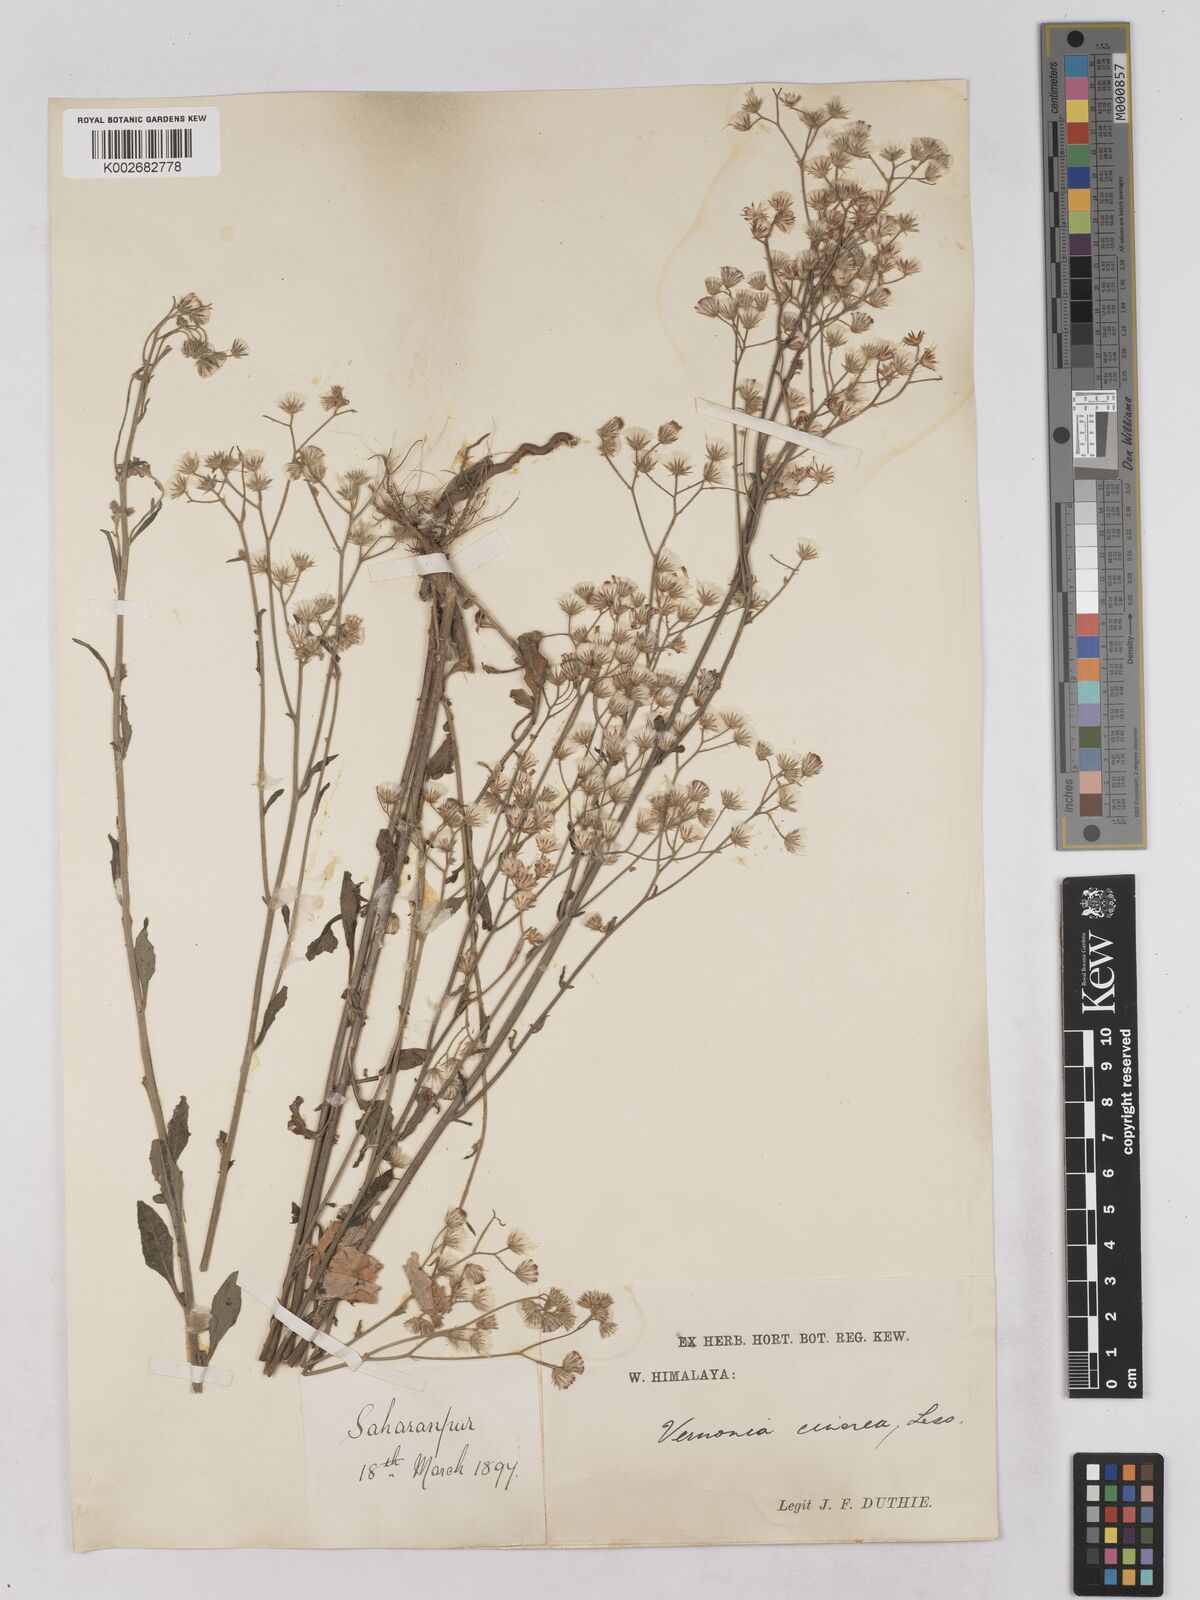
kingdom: Plantae
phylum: Tracheophyta
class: Magnoliopsida
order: Asterales
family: Asteraceae
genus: Cyanthillium
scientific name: Cyanthillium cinereum
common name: Little ironweed
